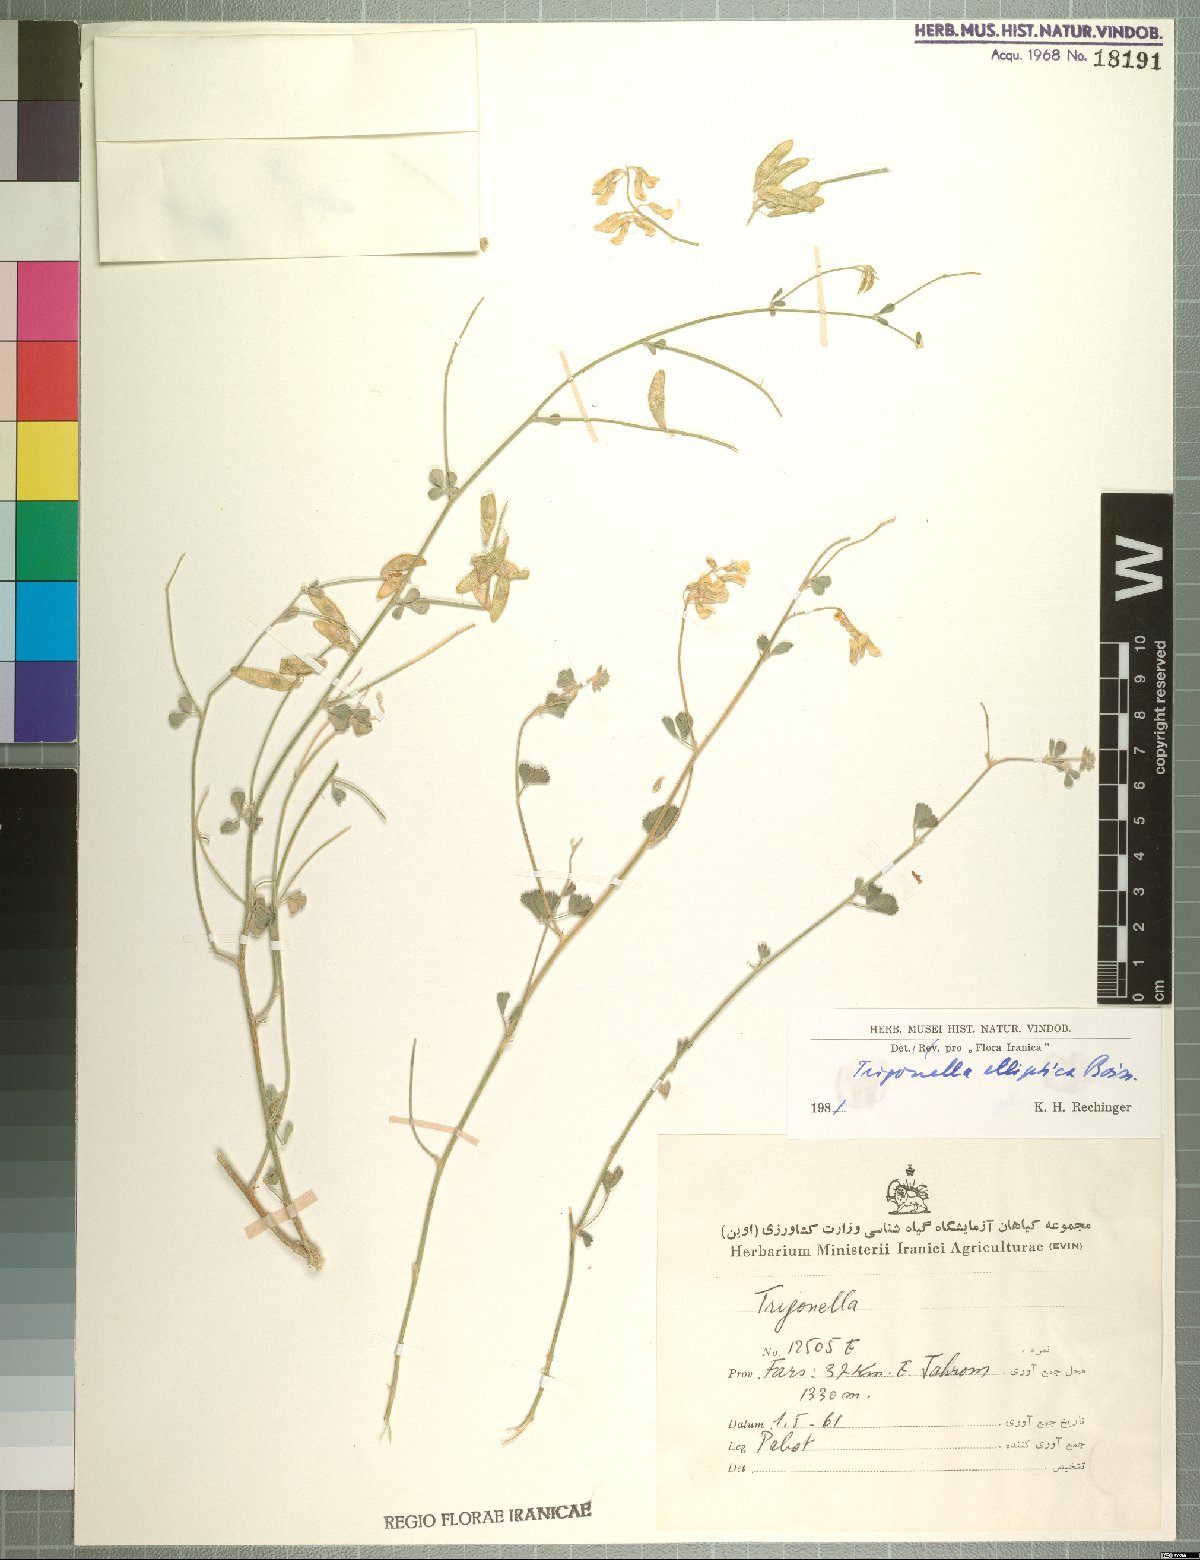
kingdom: Plantae
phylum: Tracheophyta
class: Magnoliopsida
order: Fabales
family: Fabaceae
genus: Trigonella
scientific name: Trigonella elliptica
